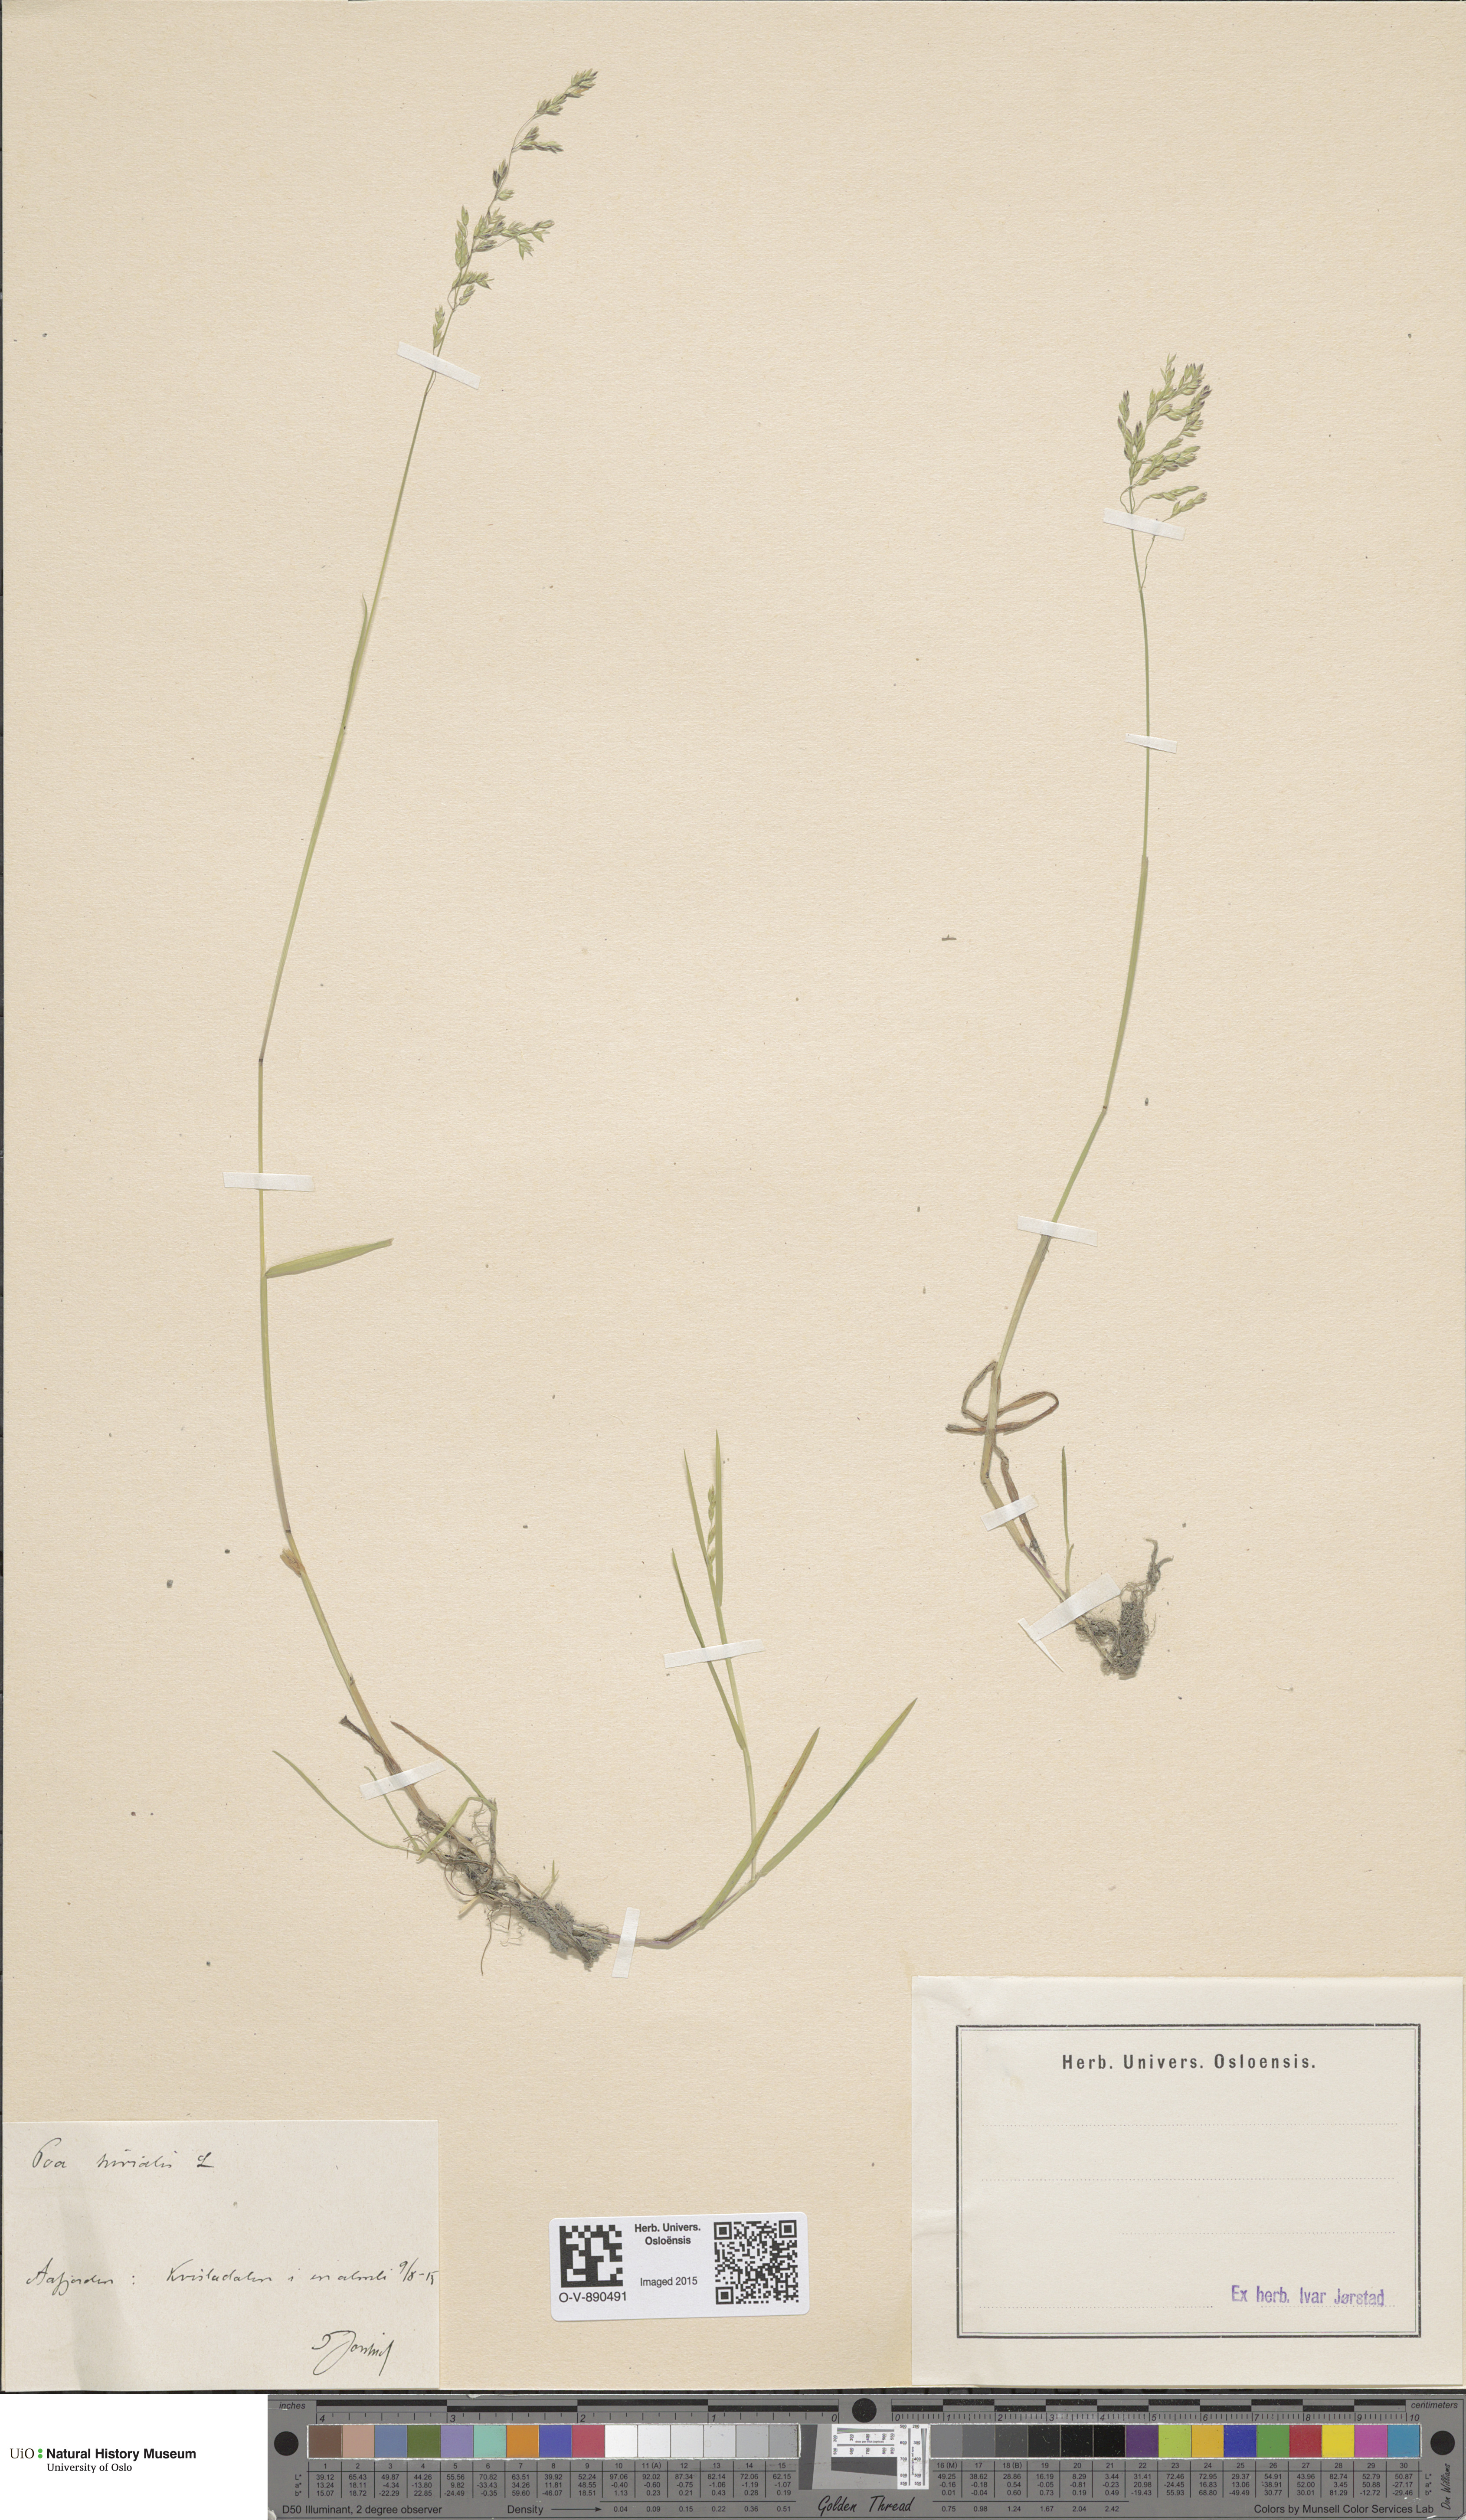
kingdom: Plantae
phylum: Tracheophyta
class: Liliopsida
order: Poales
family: Poaceae
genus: Poa
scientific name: Poa trivialis
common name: Rough bluegrass
